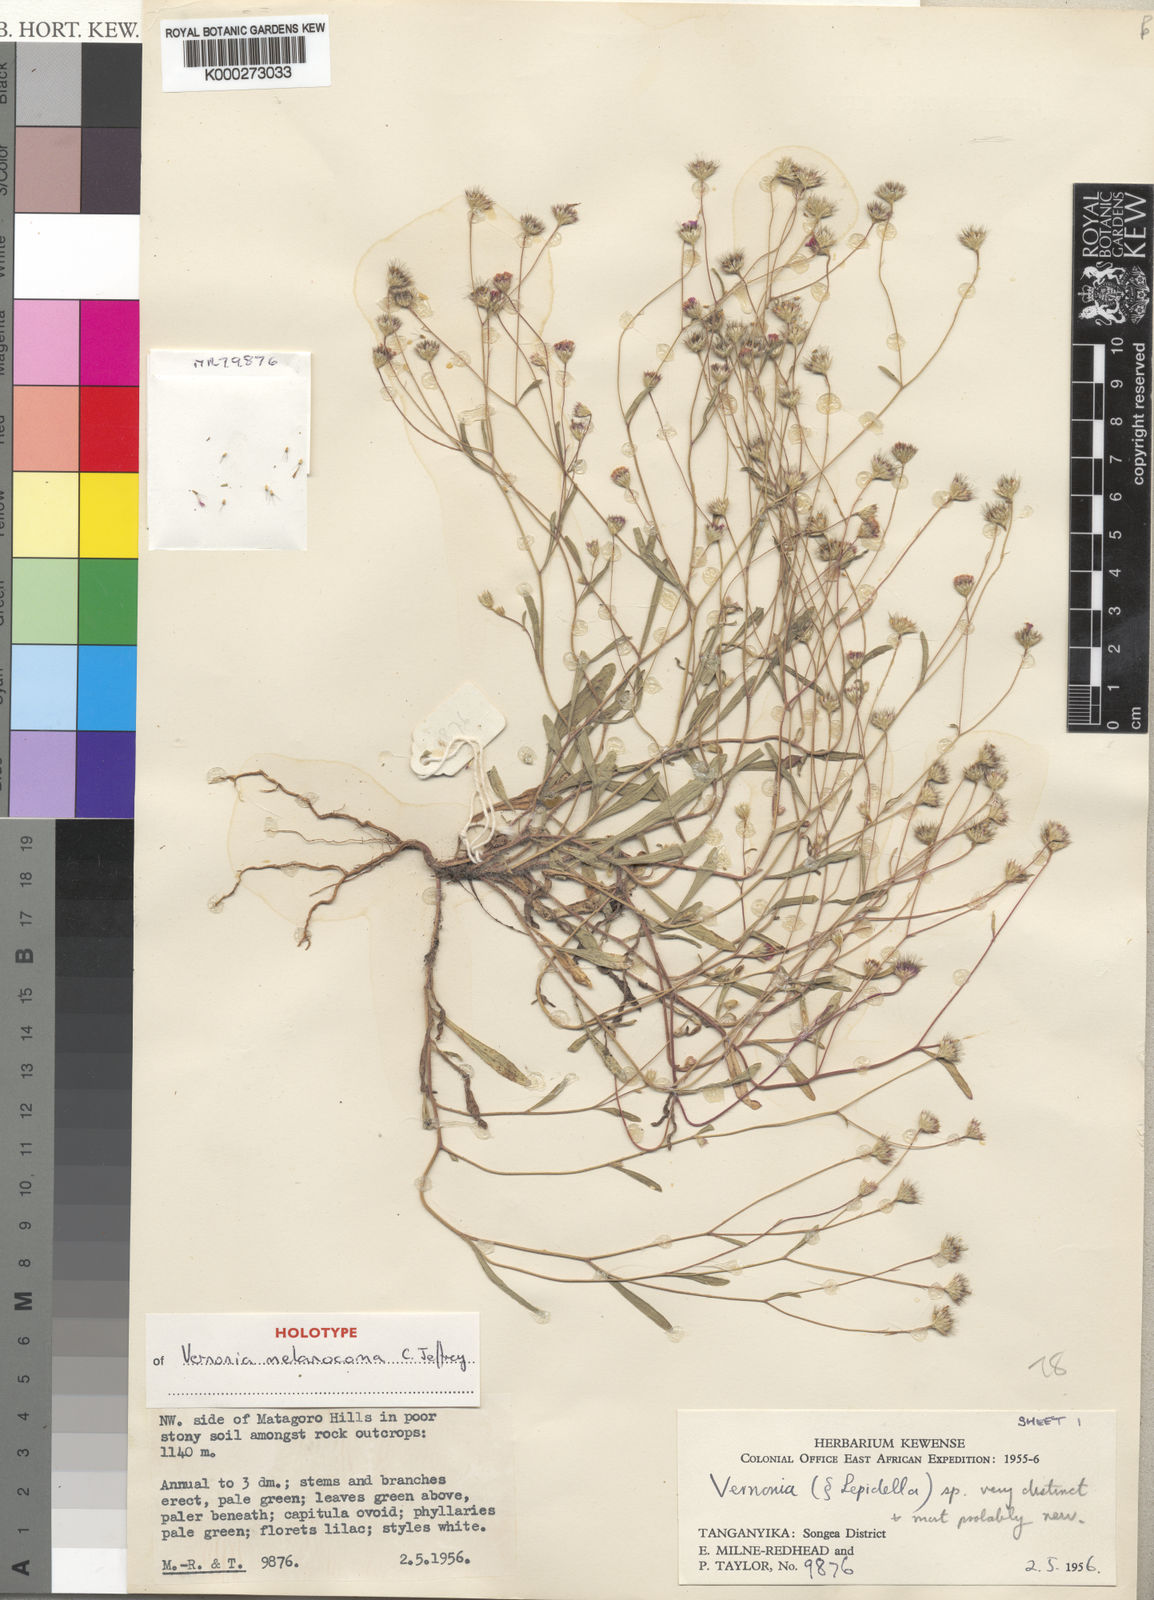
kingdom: Plantae
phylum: Tracheophyta
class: Magnoliopsida
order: Asterales
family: Asteraceae
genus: Vernonia
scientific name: Vernonia melanocoma
